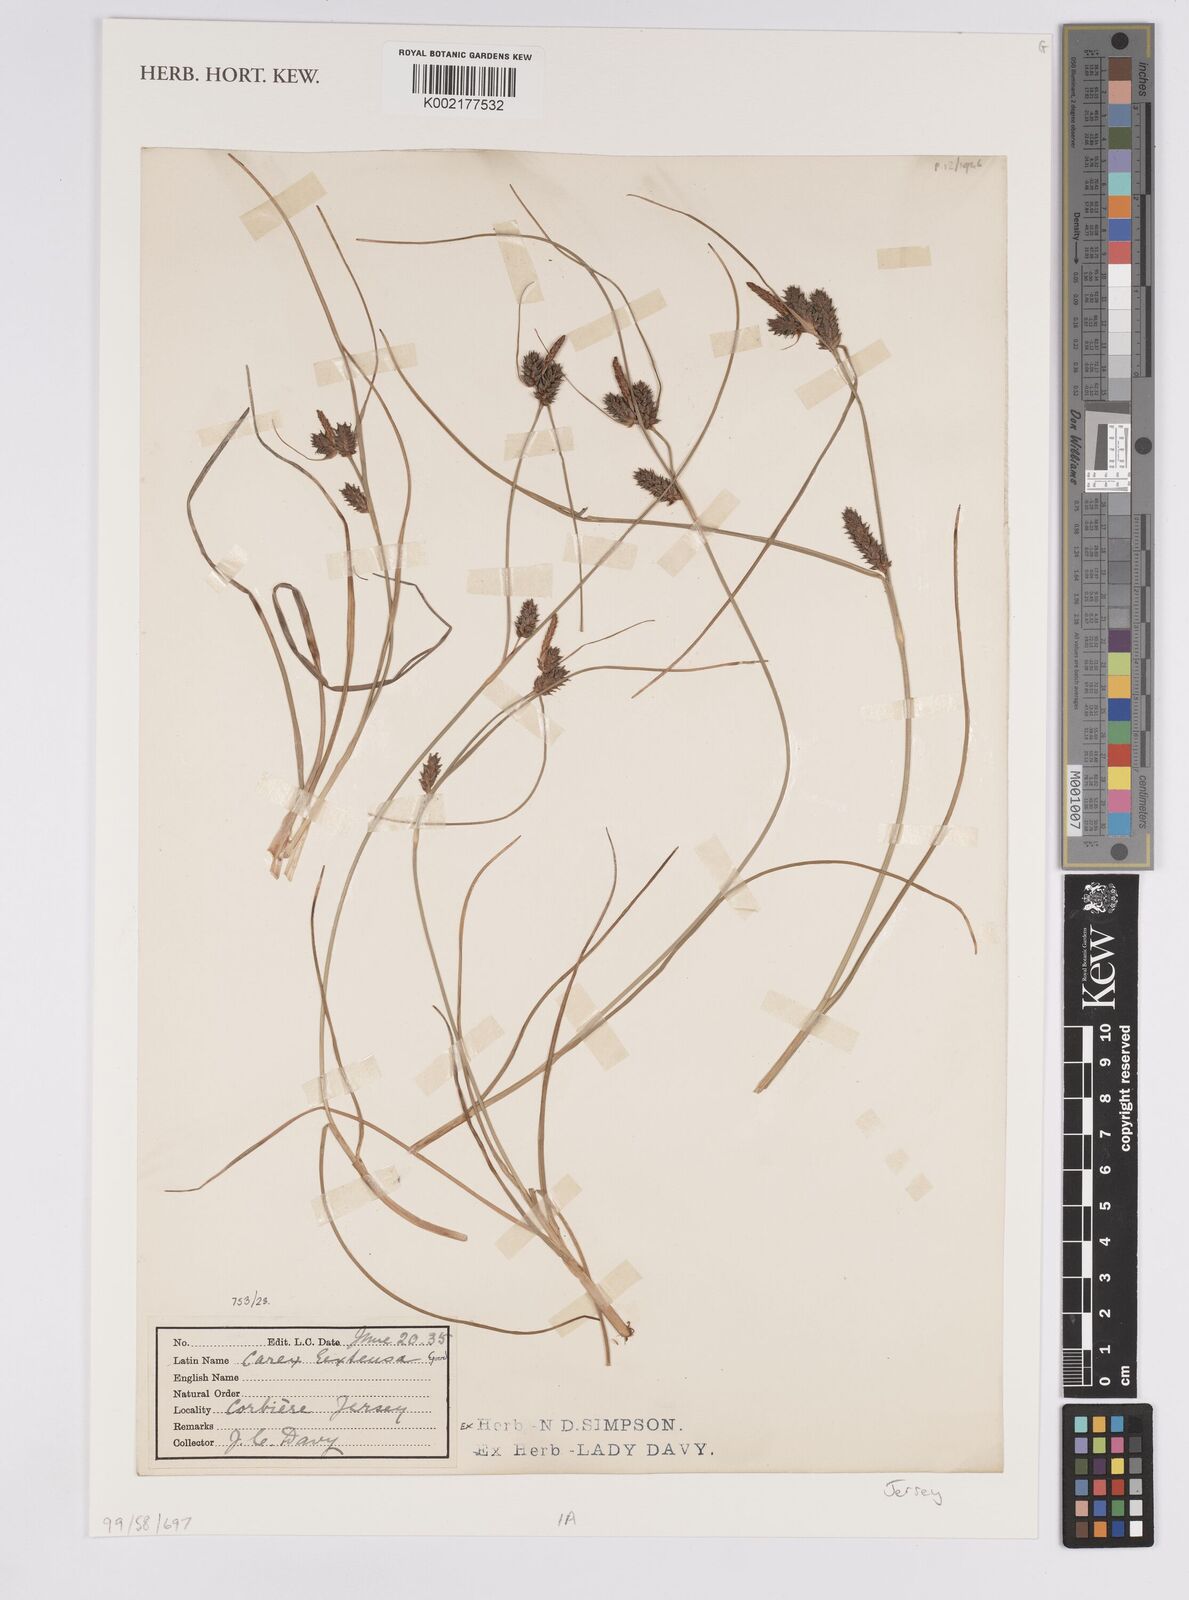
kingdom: Plantae
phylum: Tracheophyta
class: Liliopsida
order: Poales
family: Cyperaceae
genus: Carex
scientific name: Carex extensa
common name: Long-bracted sedge
